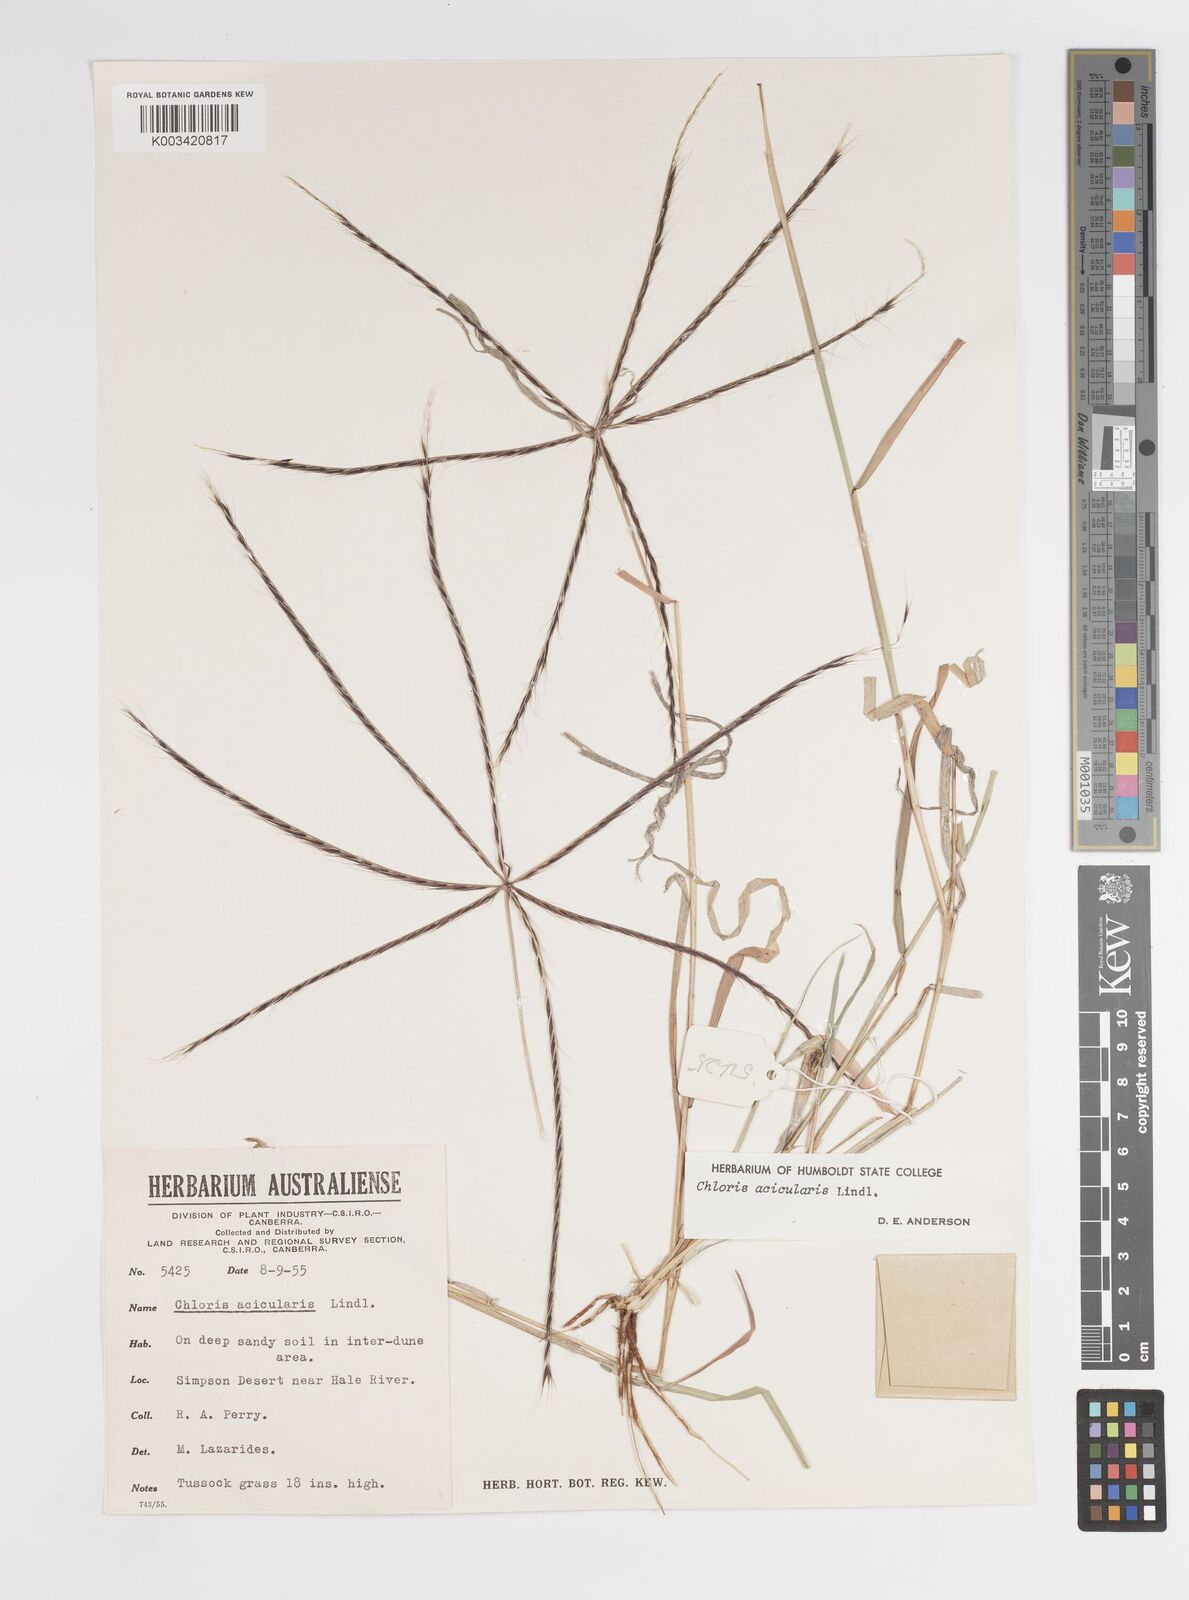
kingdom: Plantae
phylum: Tracheophyta
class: Liliopsida
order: Poales
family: Poaceae
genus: Enteropogon
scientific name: Enteropogon acicularis
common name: Curly windmill grass
